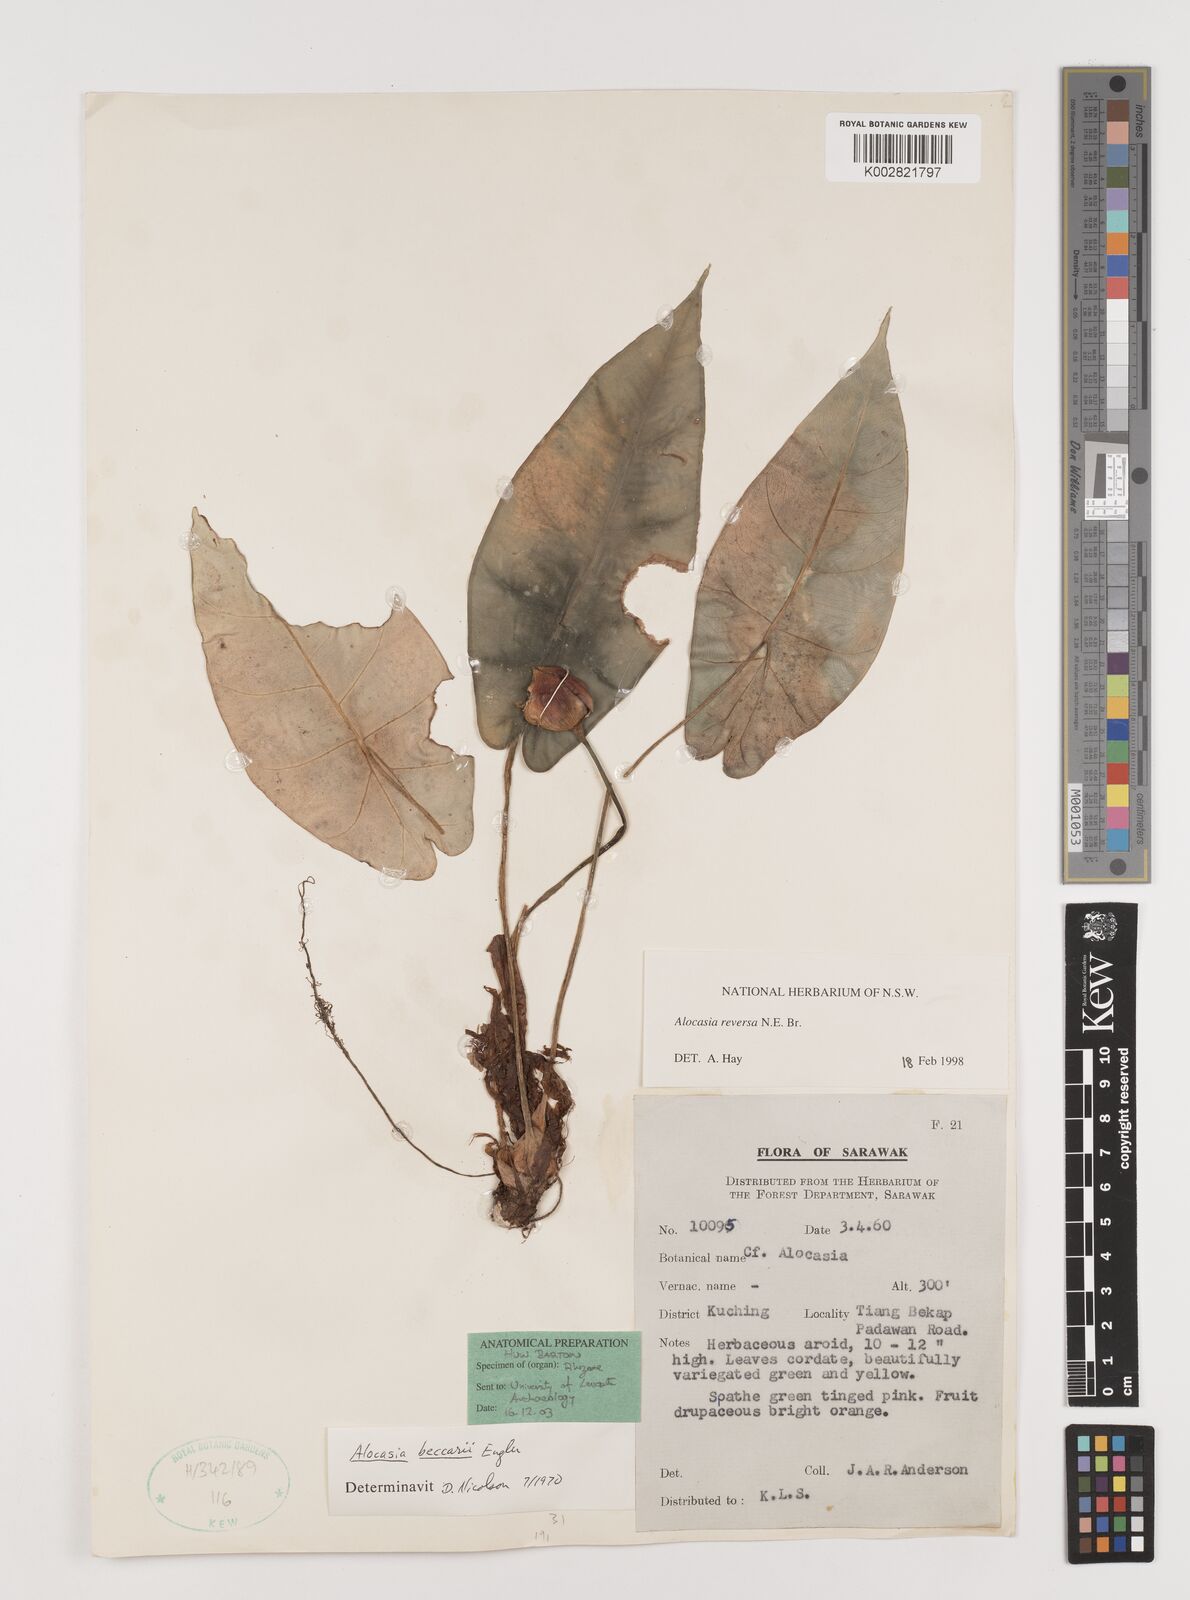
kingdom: Plantae
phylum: Tracheophyta
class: Liliopsida
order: Alismatales
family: Araceae
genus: Alocasia
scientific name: Alocasia reversa
